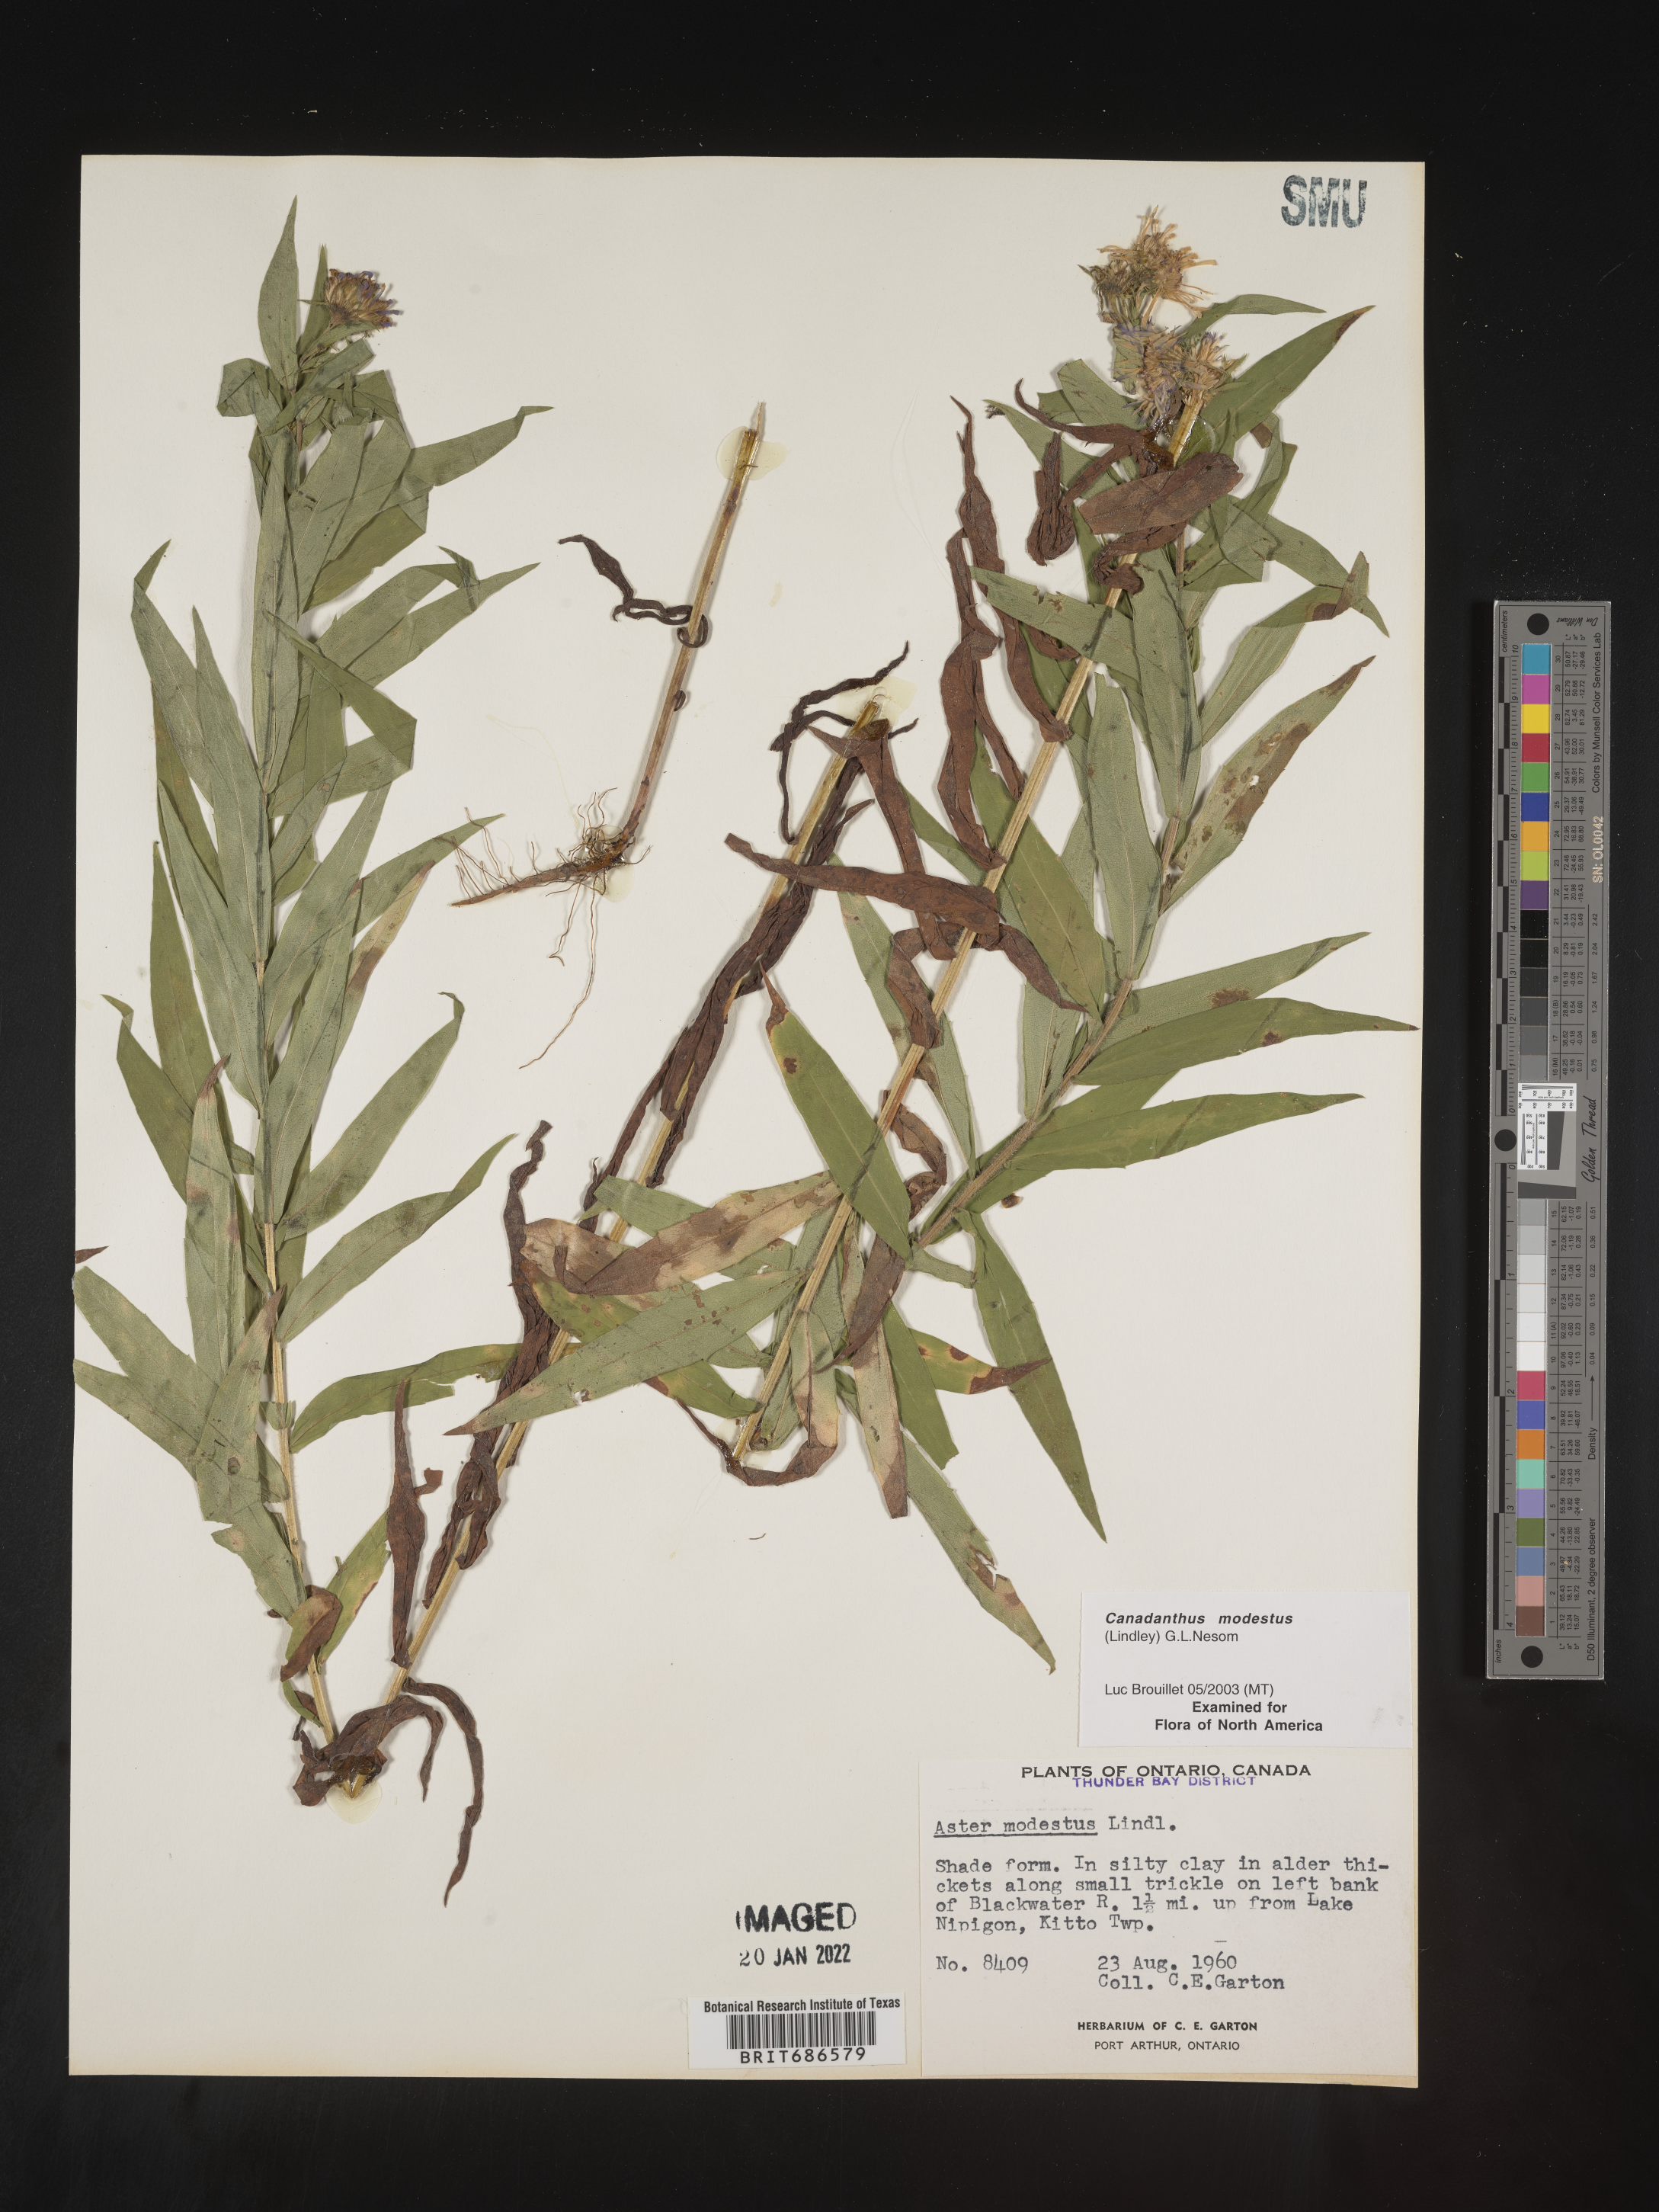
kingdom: Plantae
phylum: Tracheophyta
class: Magnoliopsida
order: Asterales
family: Asteraceae
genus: Canadanthus
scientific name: Canadanthus modestus
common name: Great northern aster
